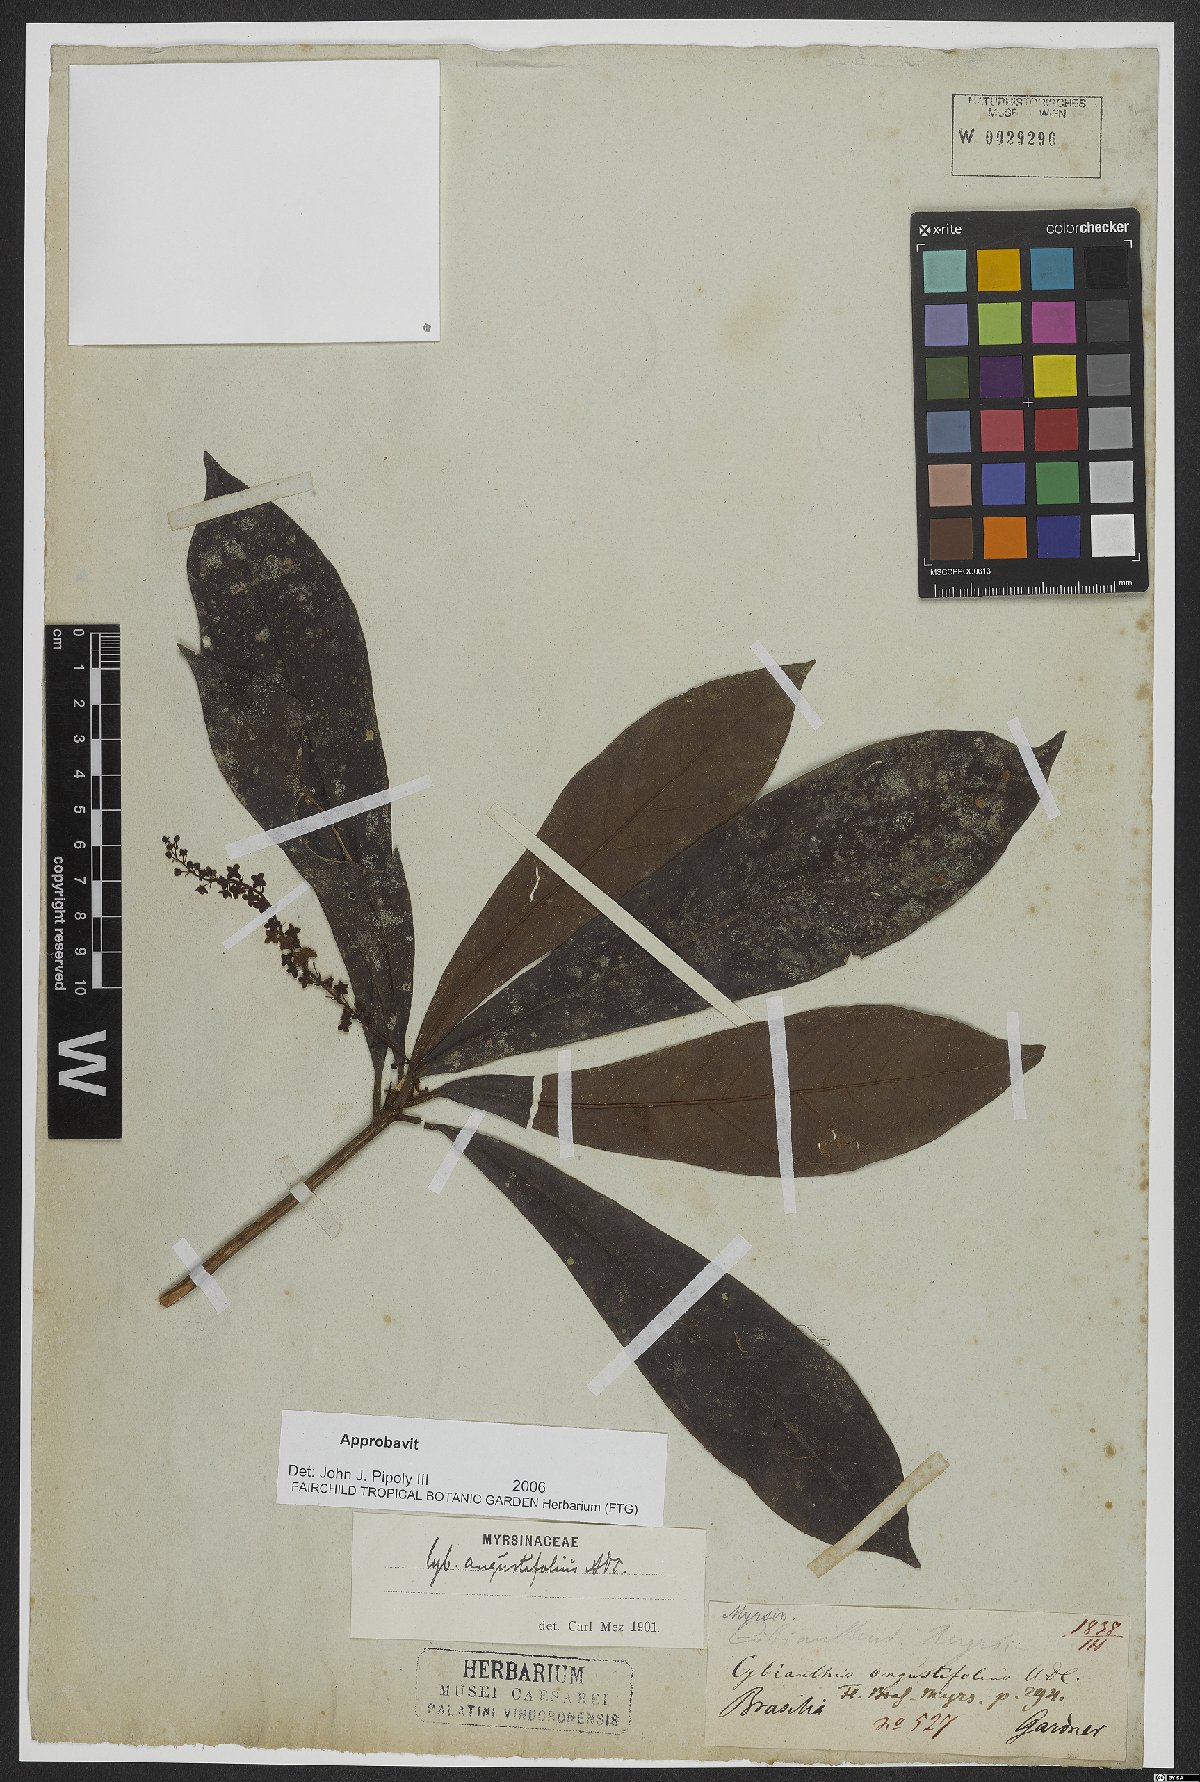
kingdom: Plantae
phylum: Tracheophyta
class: Magnoliopsida
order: Ericales
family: Primulaceae
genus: Cybianthus
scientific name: Cybianthus verticillatus
